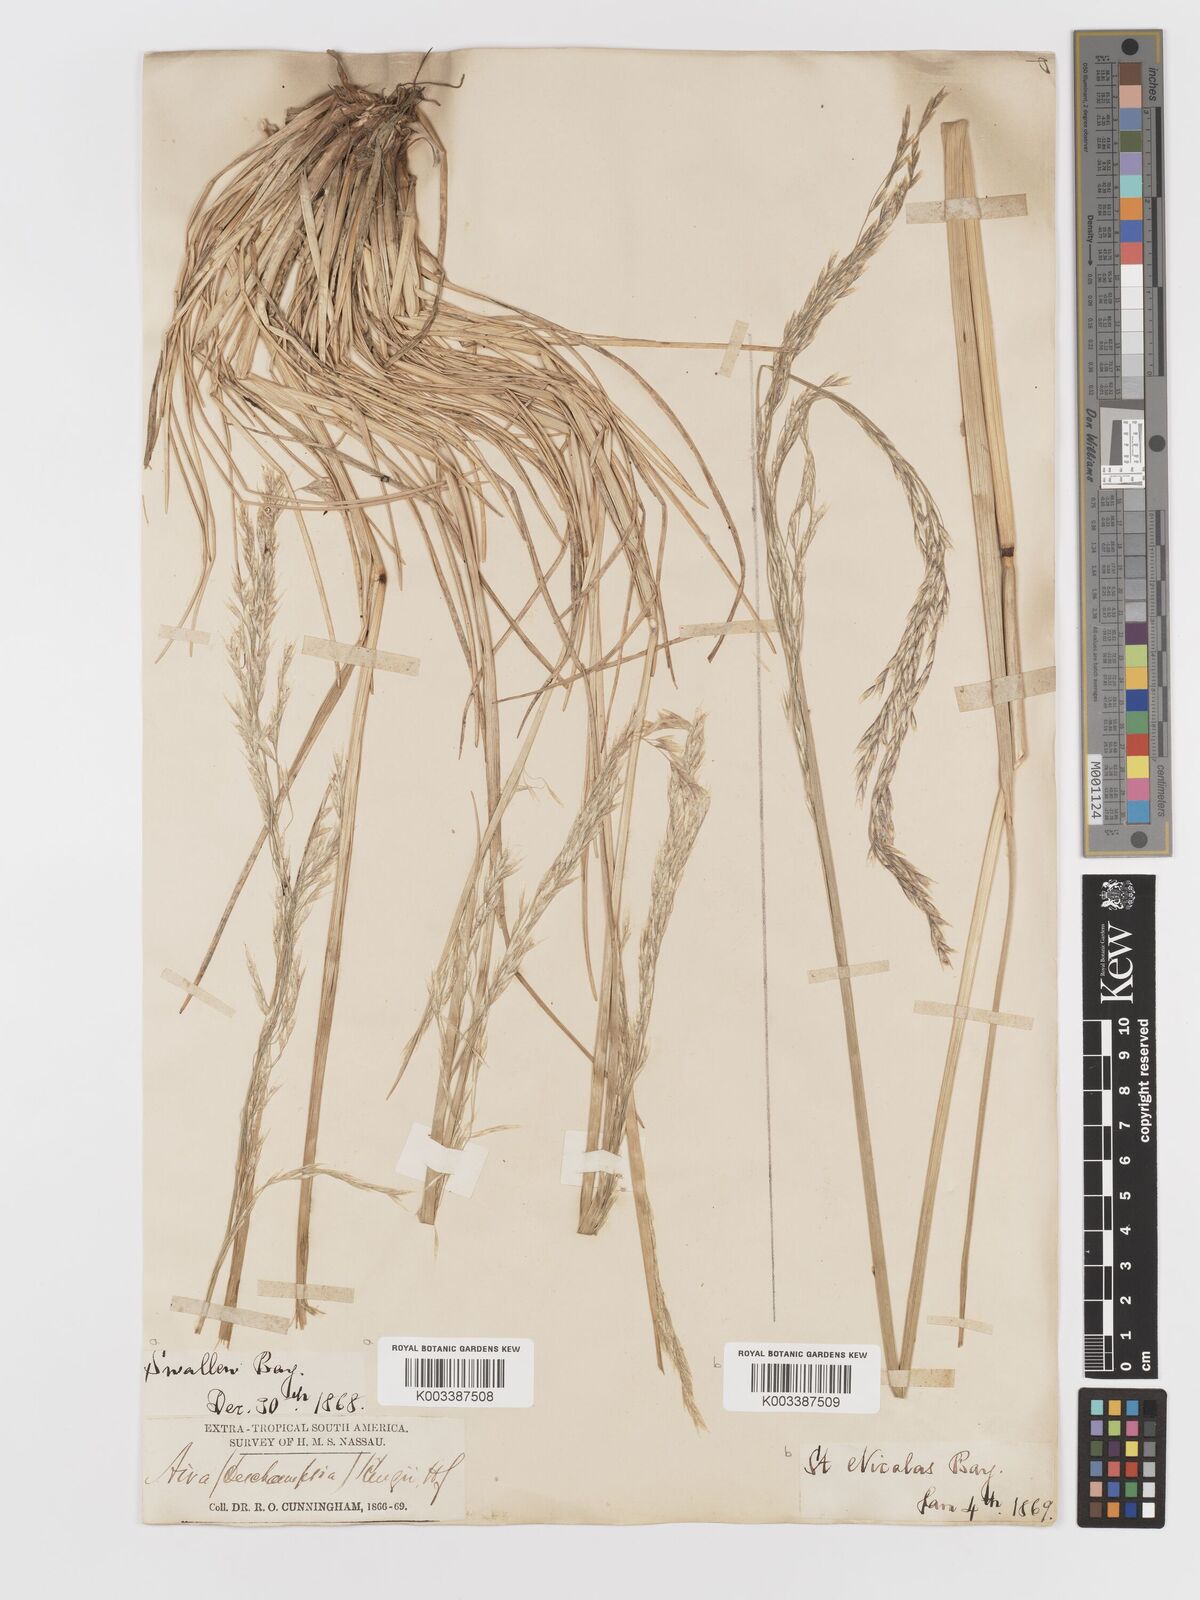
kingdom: Plantae
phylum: Tracheophyta
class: Liliopsida
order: Poales
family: Poaceae
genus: Deschampsia
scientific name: Deschampsia kingii
